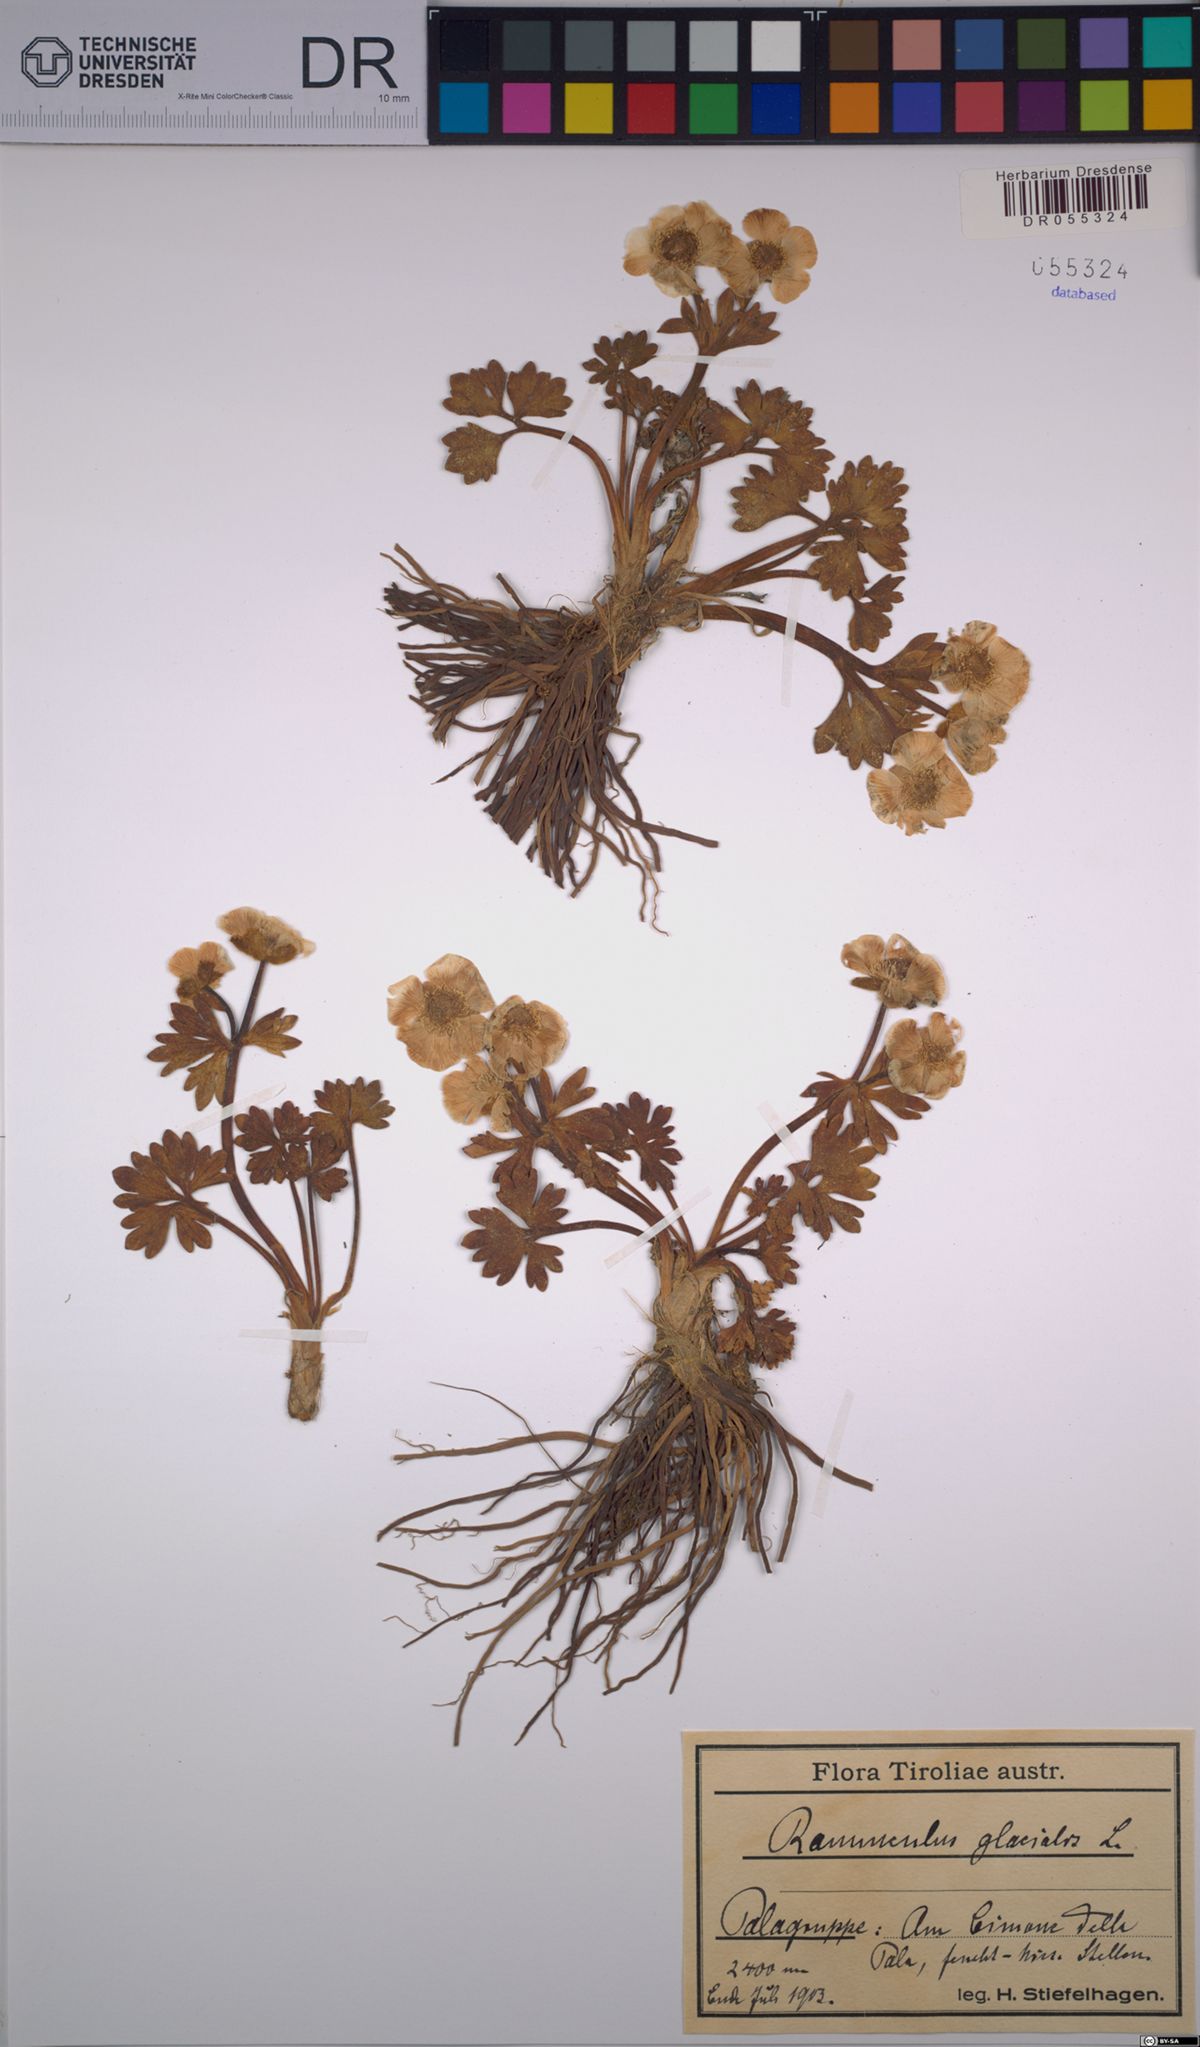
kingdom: Plantae
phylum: Tracheophyta
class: Magnoliopsida
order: Ranunculales
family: Ranunculaceae
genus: Ranunculus
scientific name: Ranunculus glacialis
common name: Glacier buttercup
